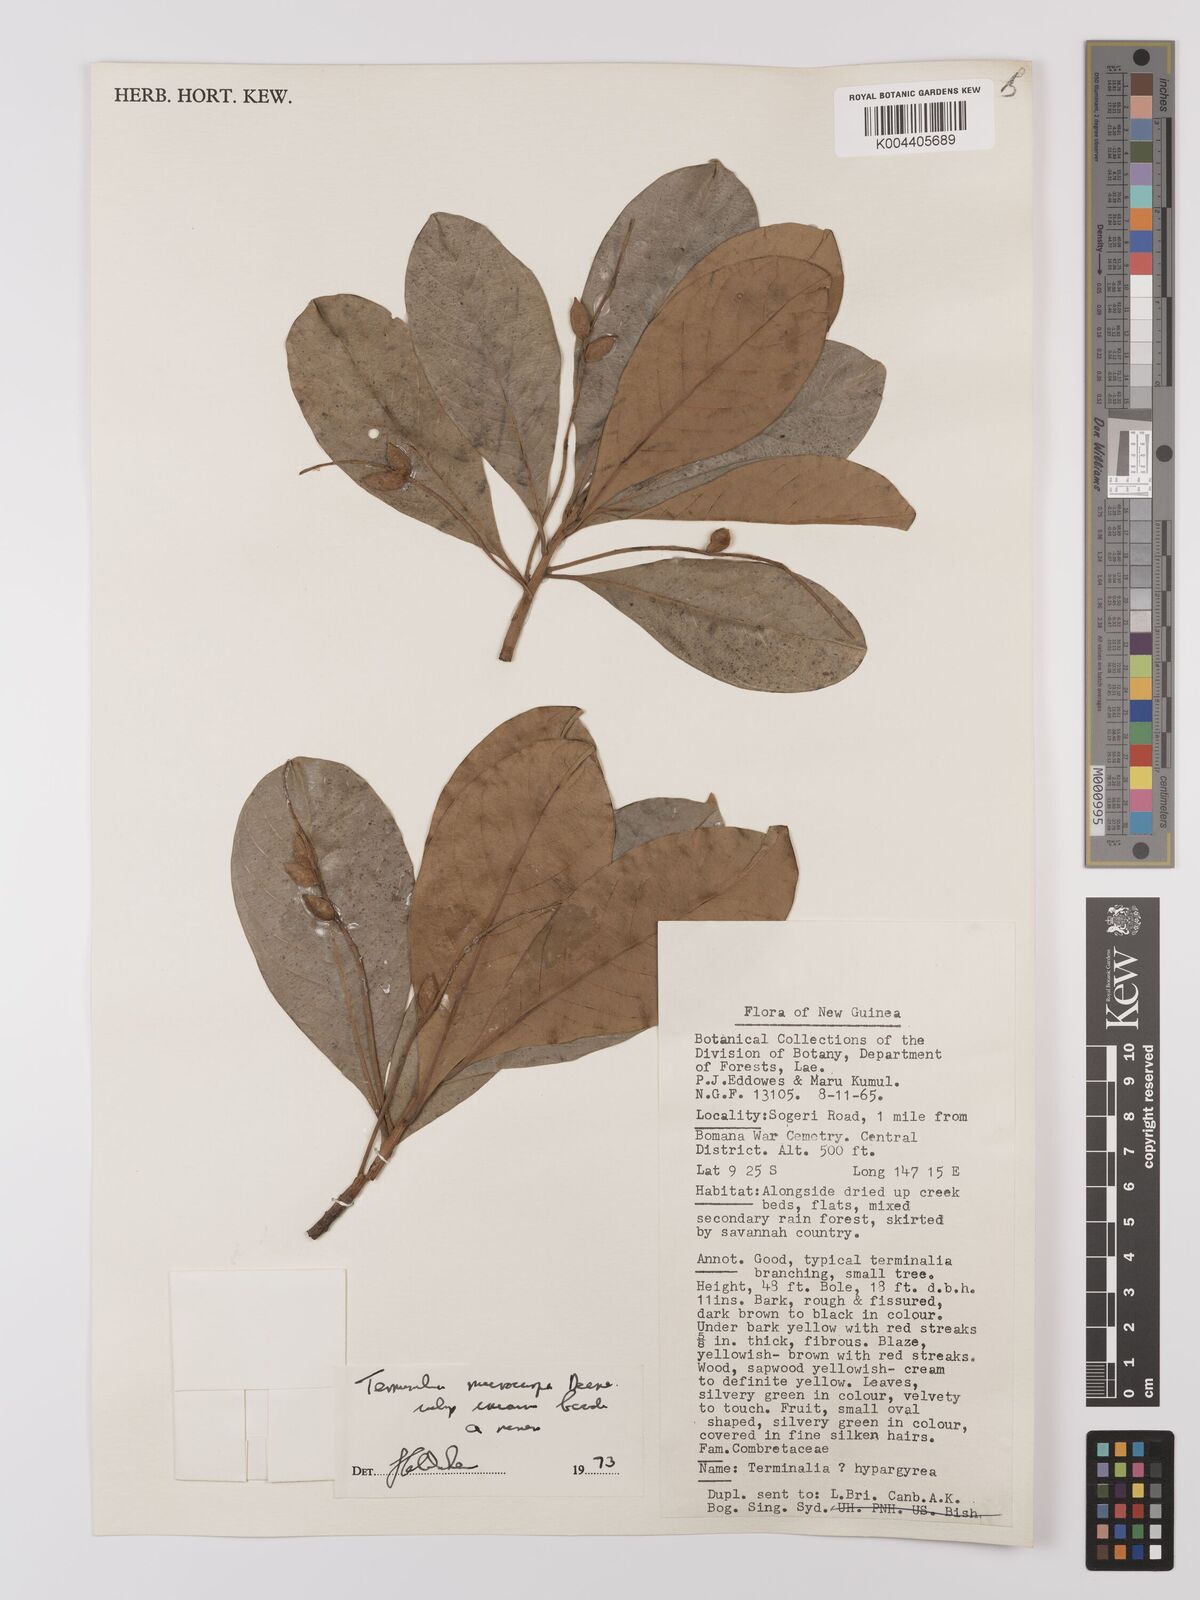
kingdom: Plantae
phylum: Tracheophyta
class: Magnoliopsida
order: Myrtales
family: Combretaceae
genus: Terminalia
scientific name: Terminalia microcarpa
